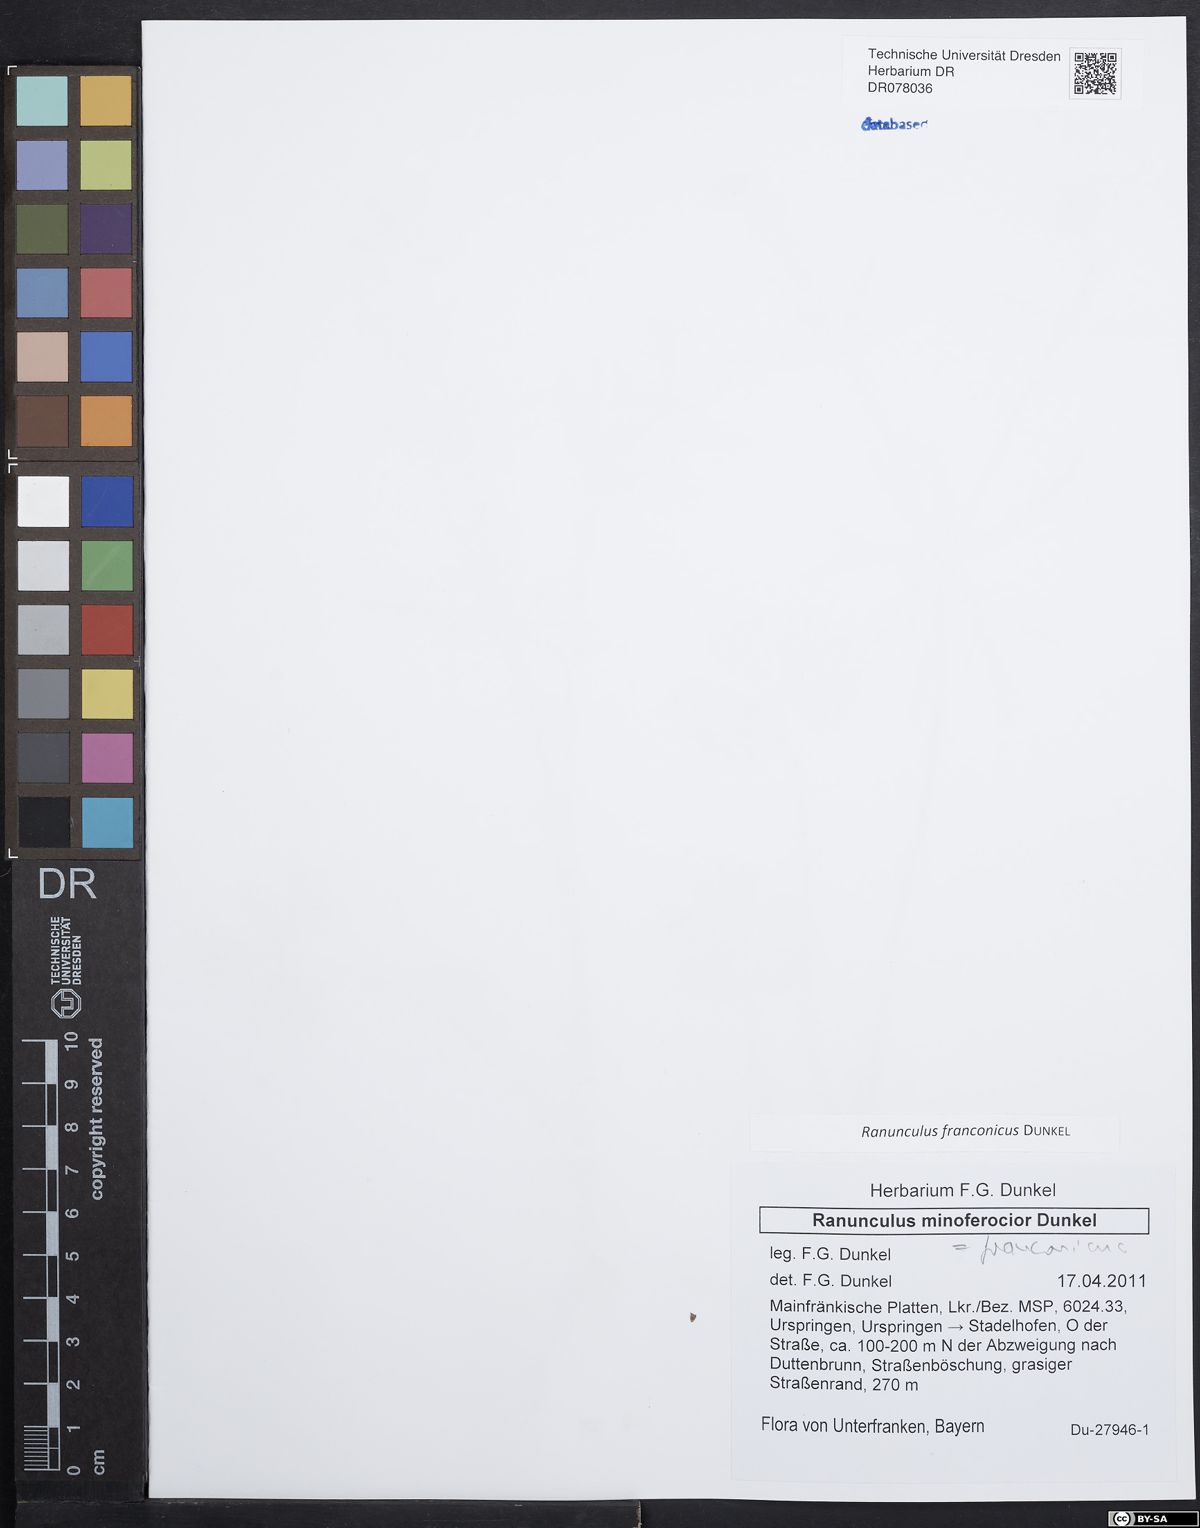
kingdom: Plantae
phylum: Tracheophyta
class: Magnoliopsida
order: Ranunculales
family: Ranunculaceae
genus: Ranunculus
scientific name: Ranunculus franconicus
